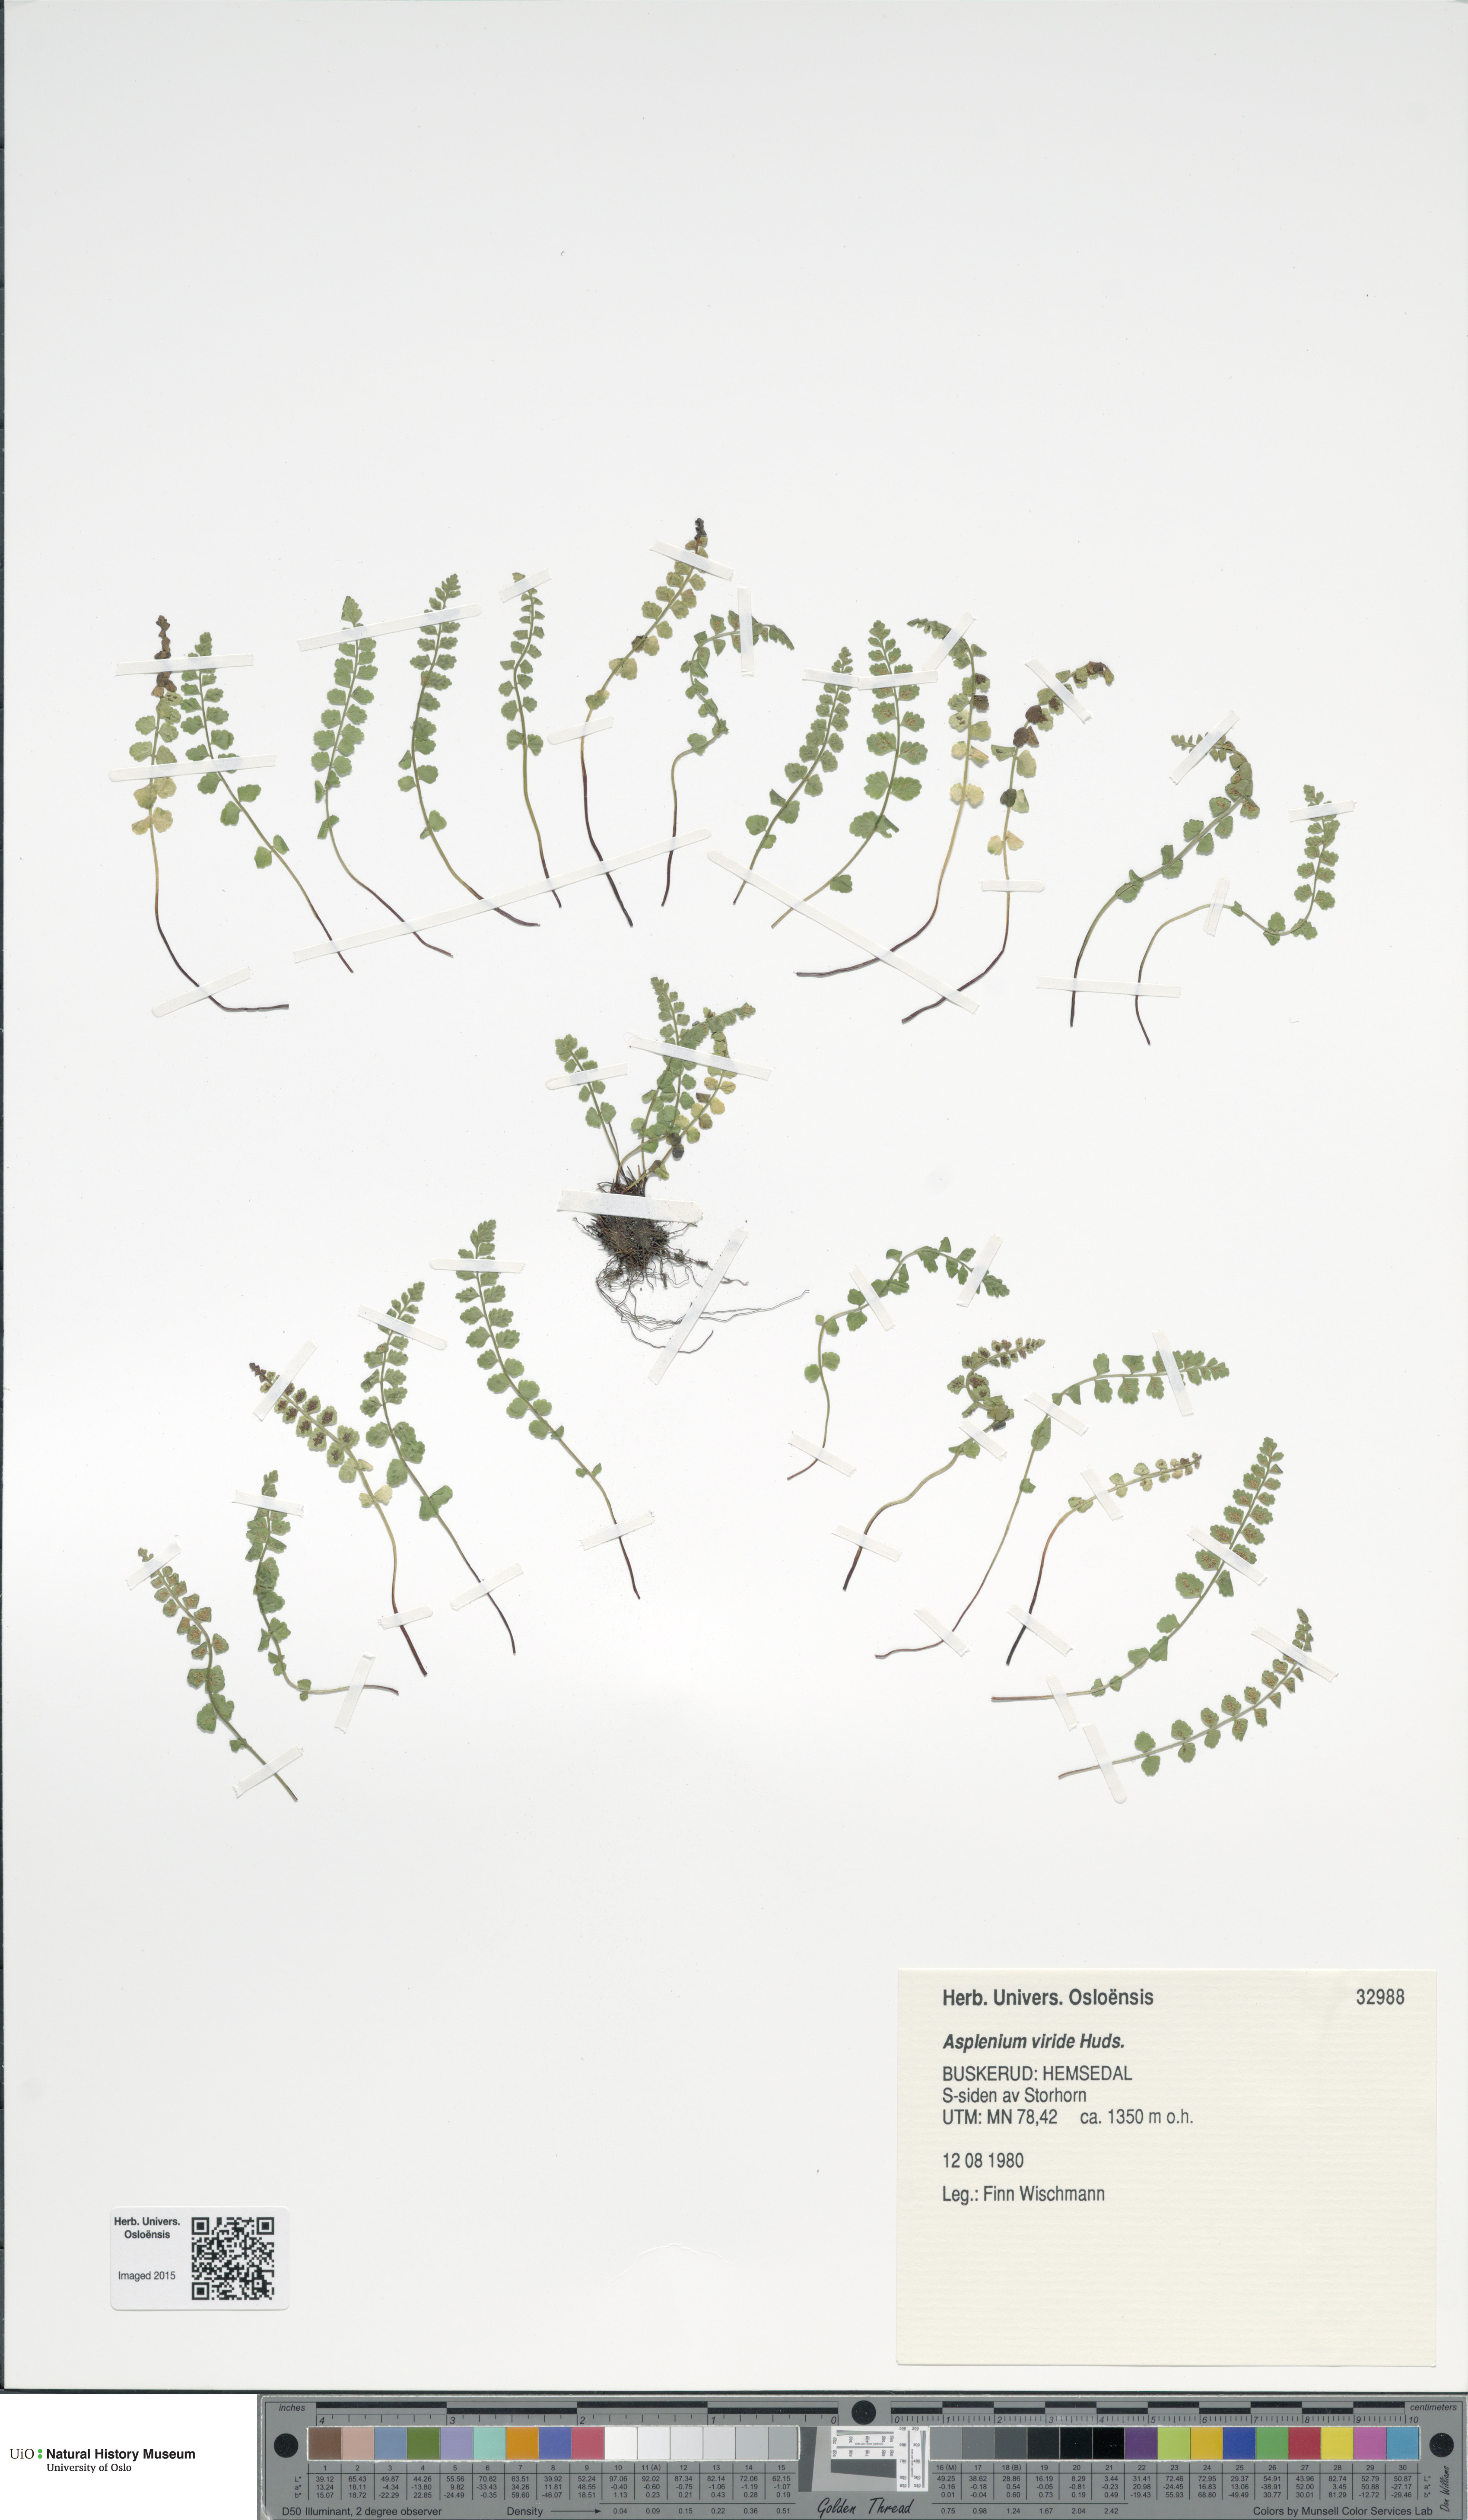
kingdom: Plantae
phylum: Tracheophyta
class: Polypodiopsida
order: Polypodiales
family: Aspleniaceae
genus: Asplenium
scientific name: Asplenium viride
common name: Green spleenwort
